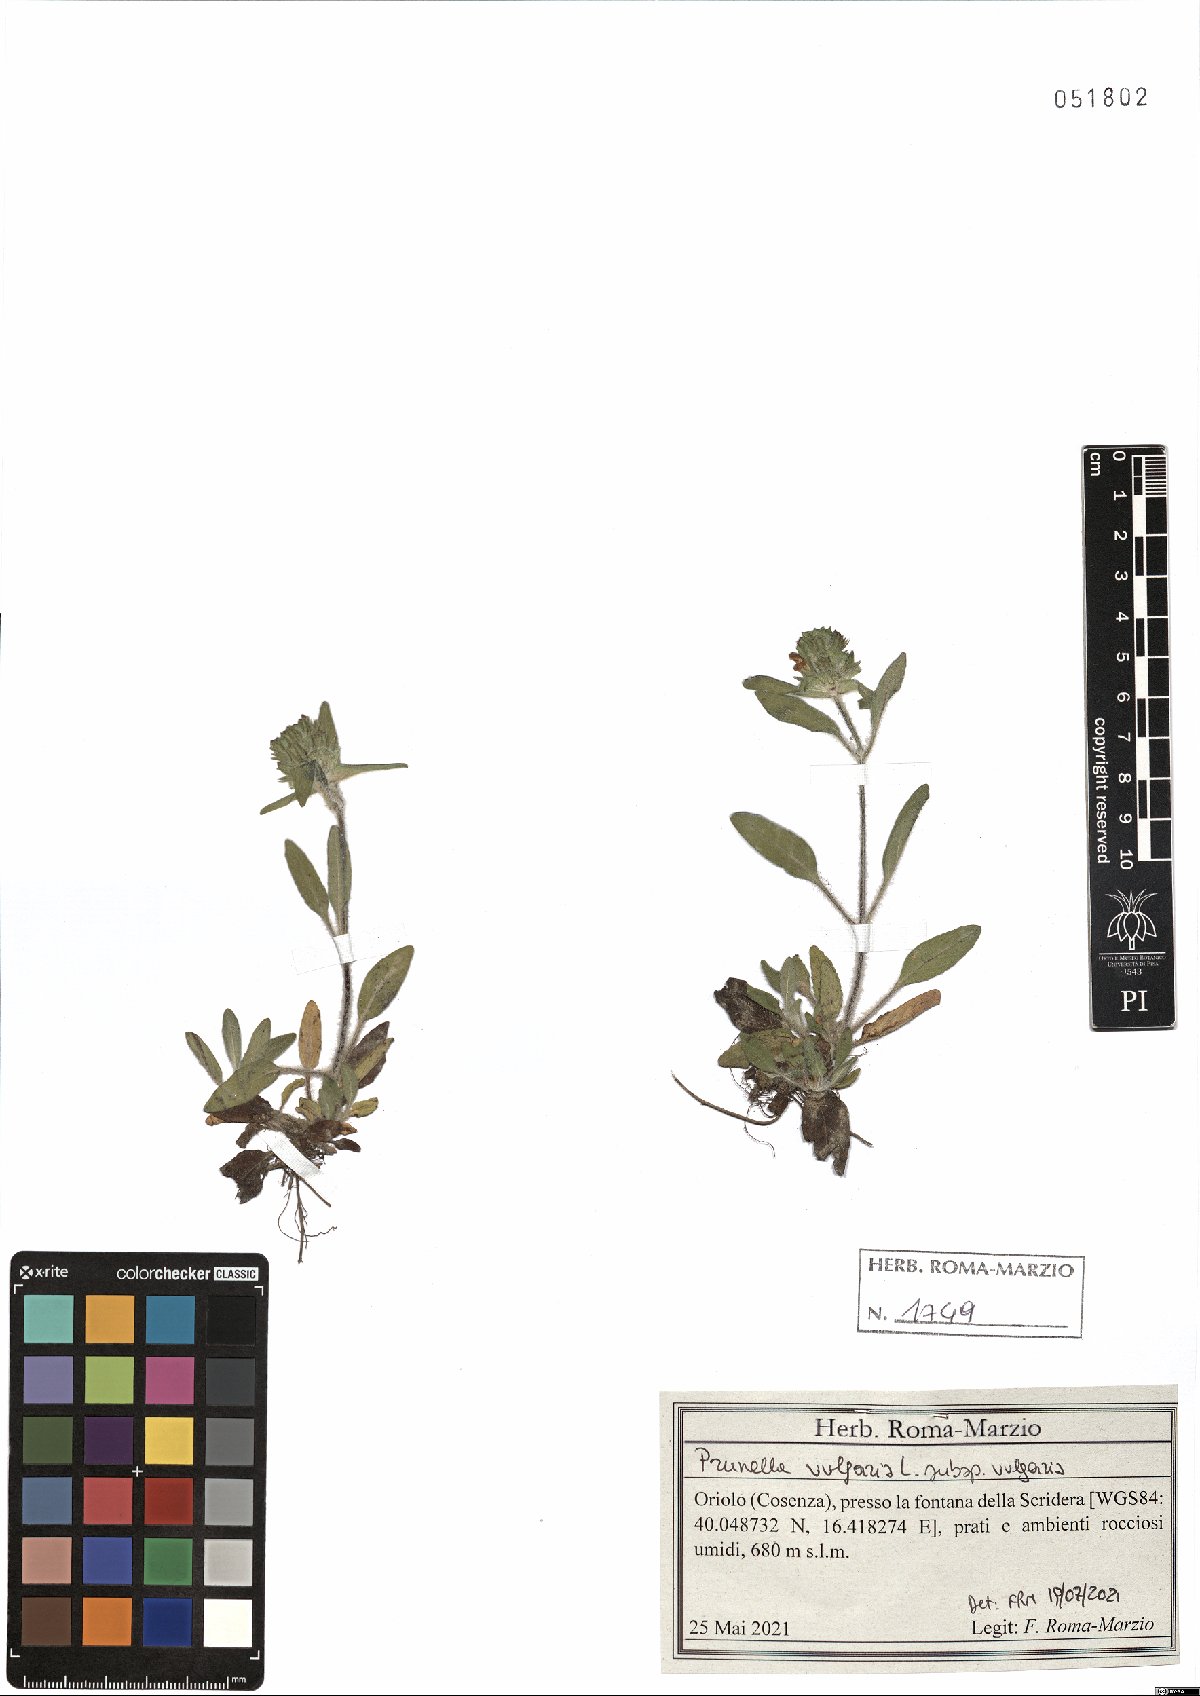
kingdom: Plantae
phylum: Tracheophyta
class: Magnoliopsida
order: Lamiales
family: Lamiaceae
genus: Prunella
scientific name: Prunella vulgaris
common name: Heal-all
